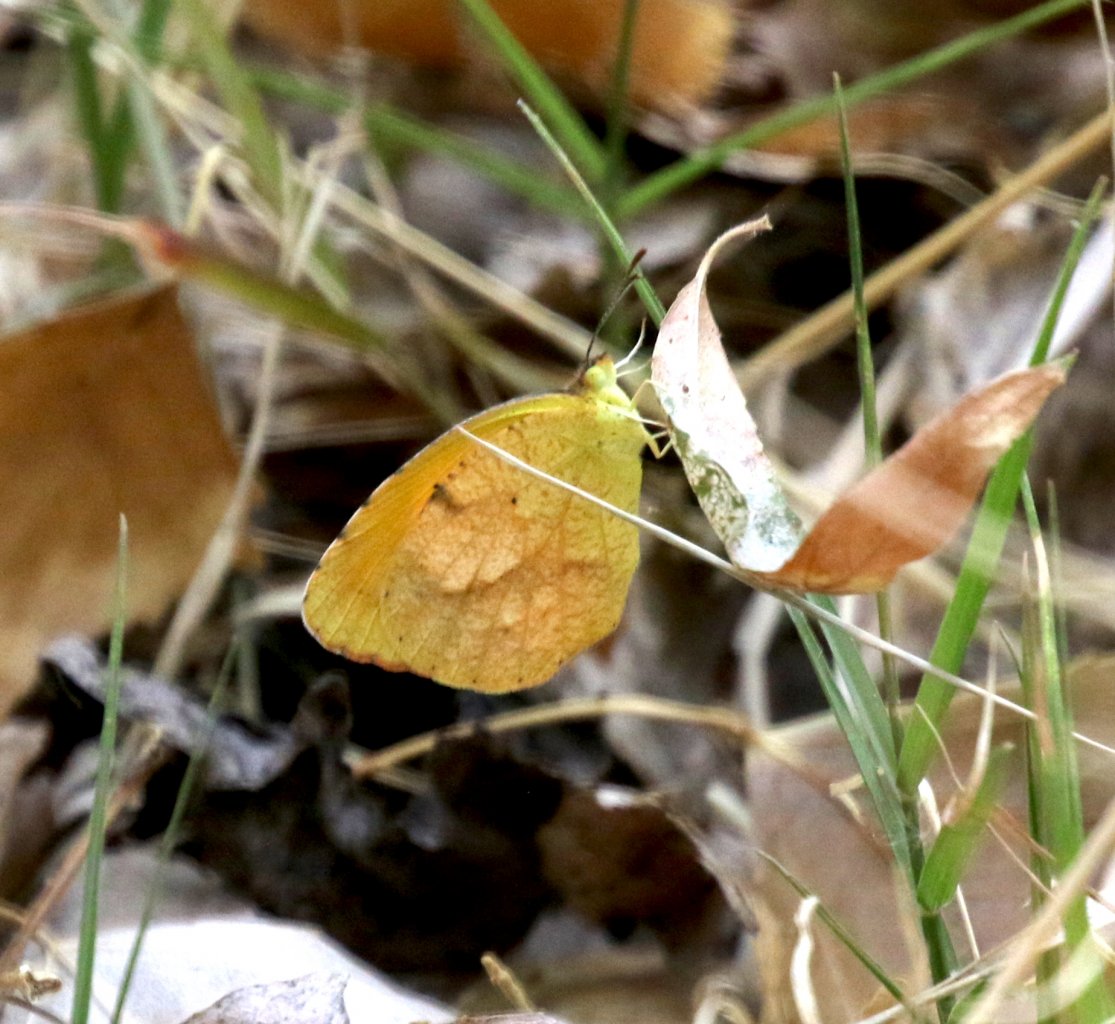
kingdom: Animalia
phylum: Arthropoda
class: Insecta
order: Lepidoptera
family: Pieridae
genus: Abaeis
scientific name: Abaeis nicippe
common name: Sleepy Orange
